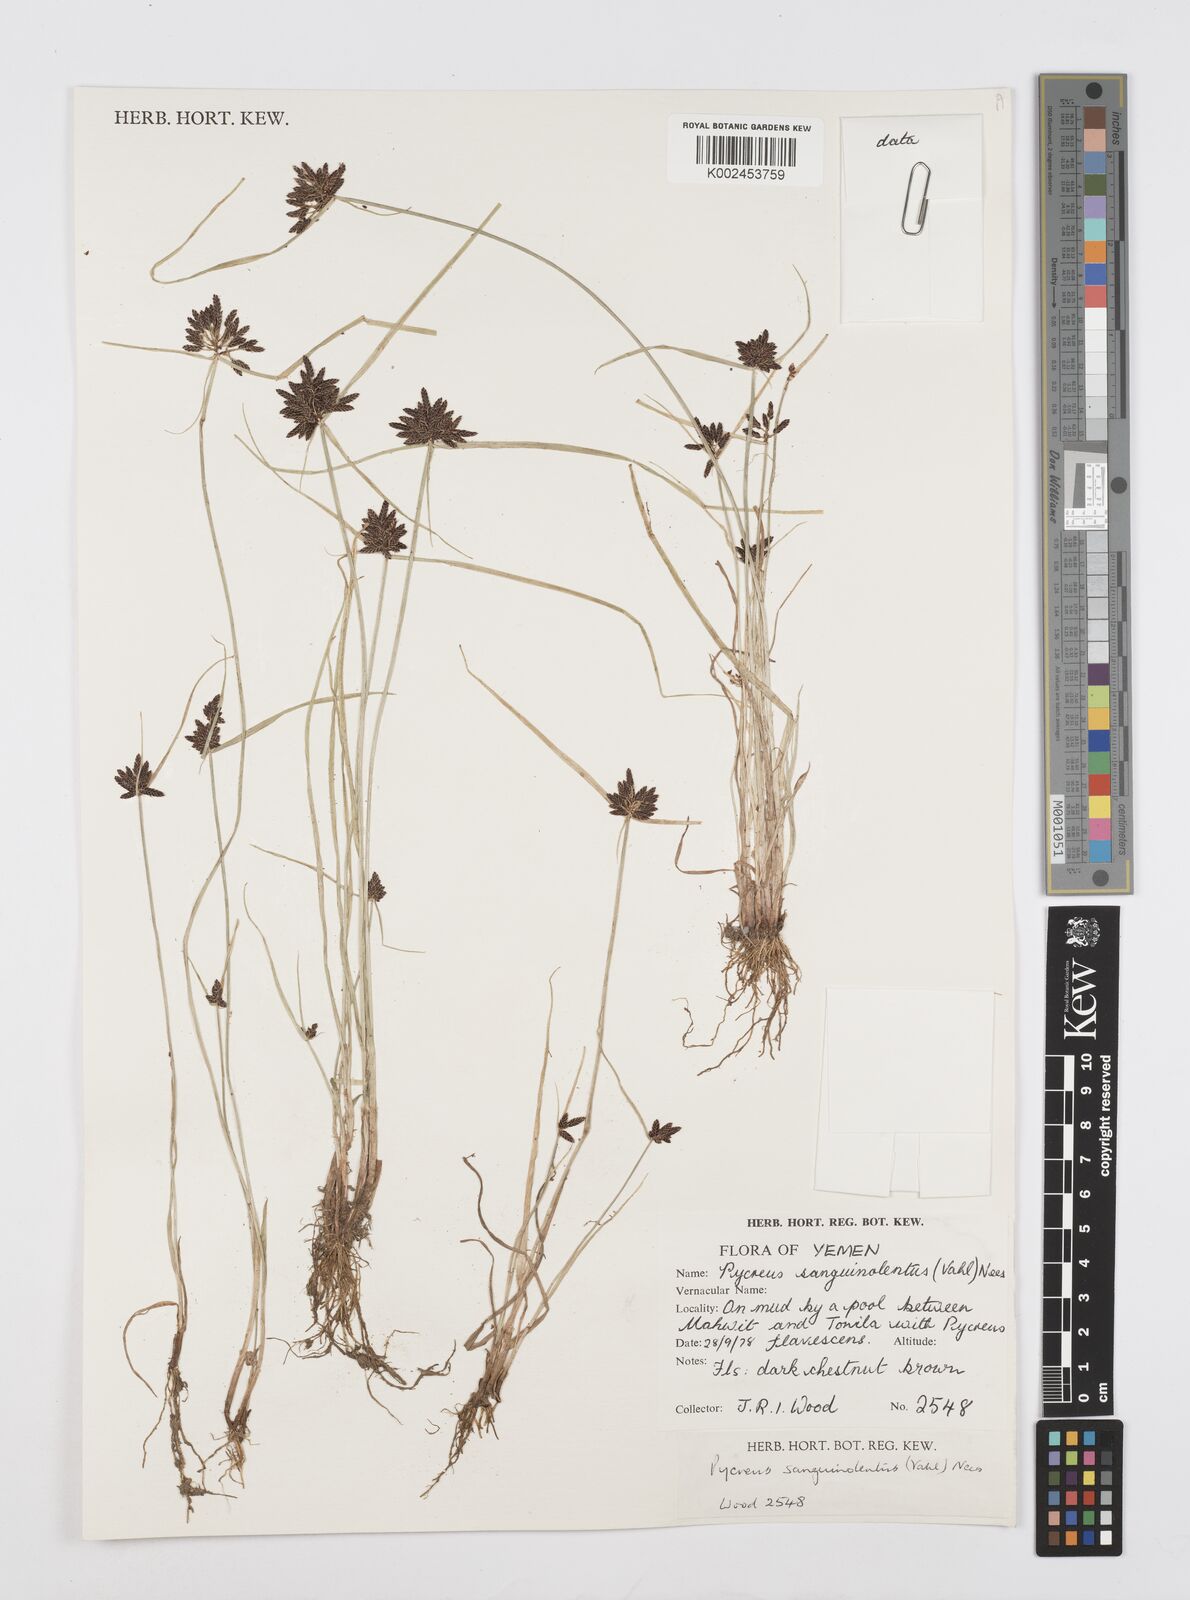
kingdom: Plantae
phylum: Tracheophyta
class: Liliopsida
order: Poales
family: Cyperaceae
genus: Cyperus
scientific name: Cyperus sanguinolentus
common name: Purpleglume flatsedge
